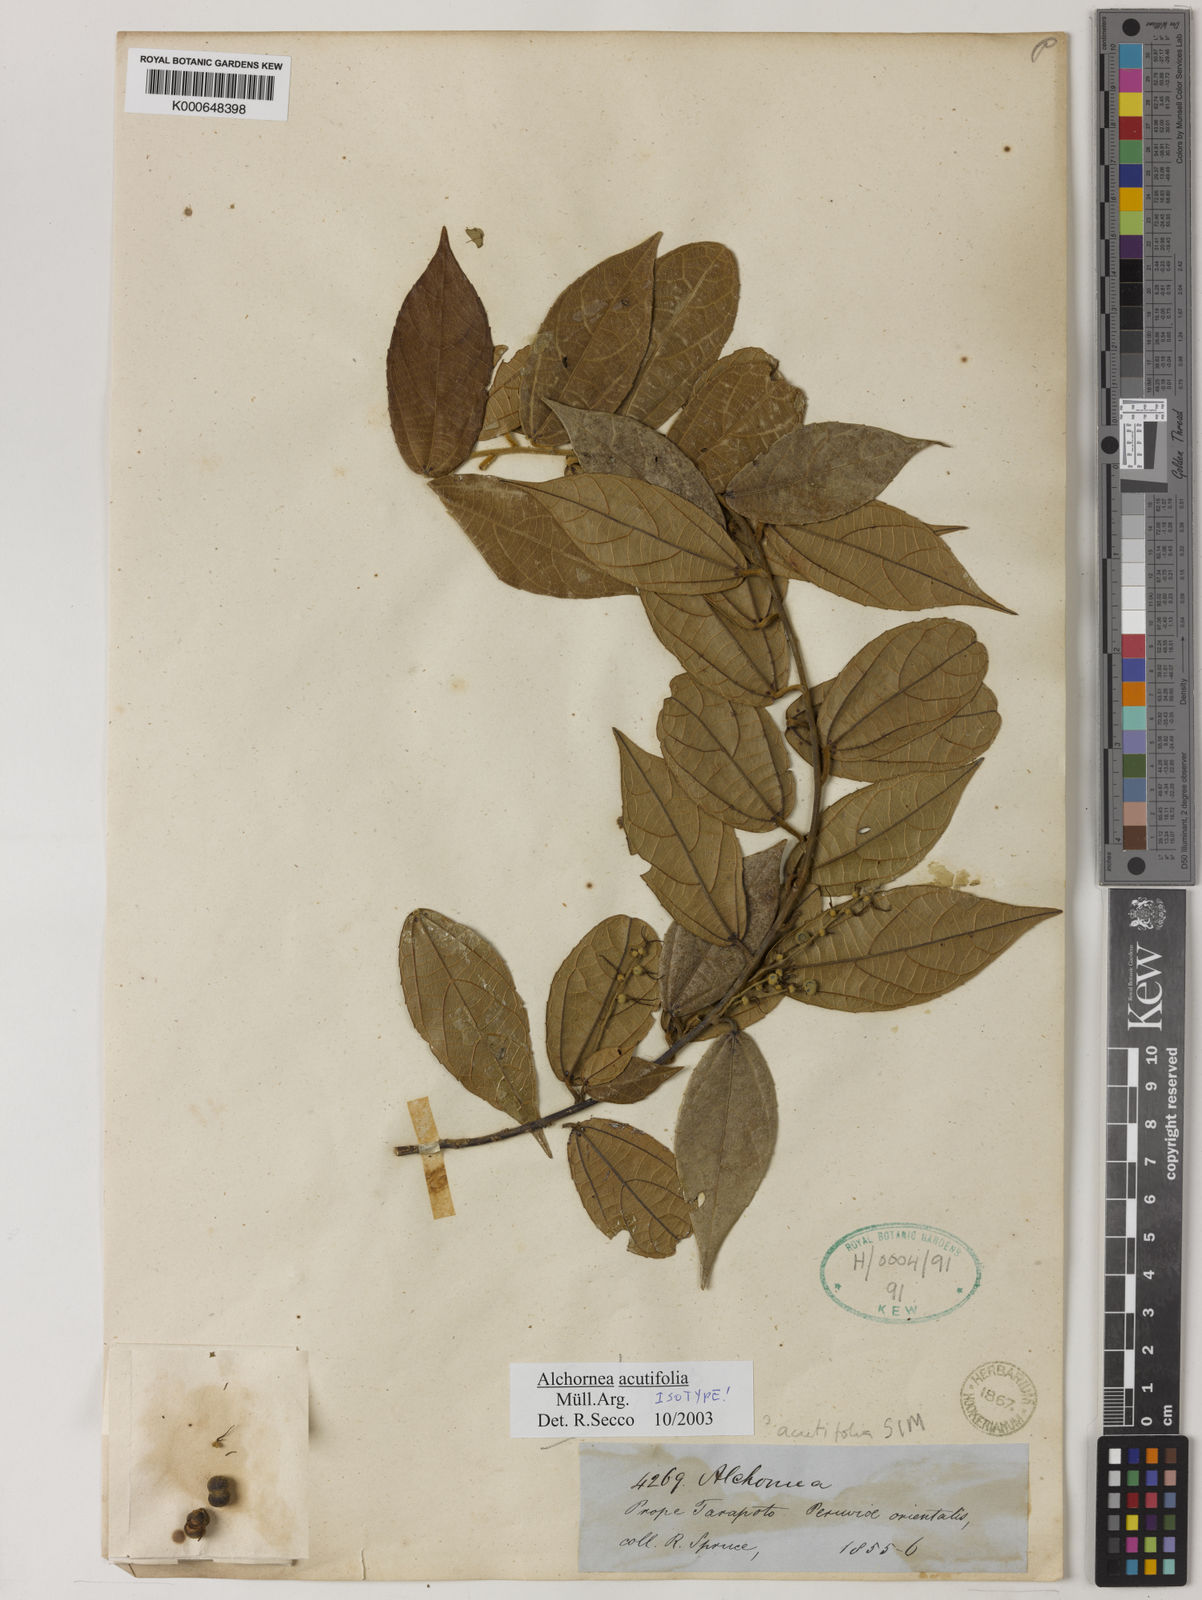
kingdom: Plantae
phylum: Tracheophyta
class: Magnoliopsida
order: Malpighiales
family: Euphorbiaceae
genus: Alchornea
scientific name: Alchornea
